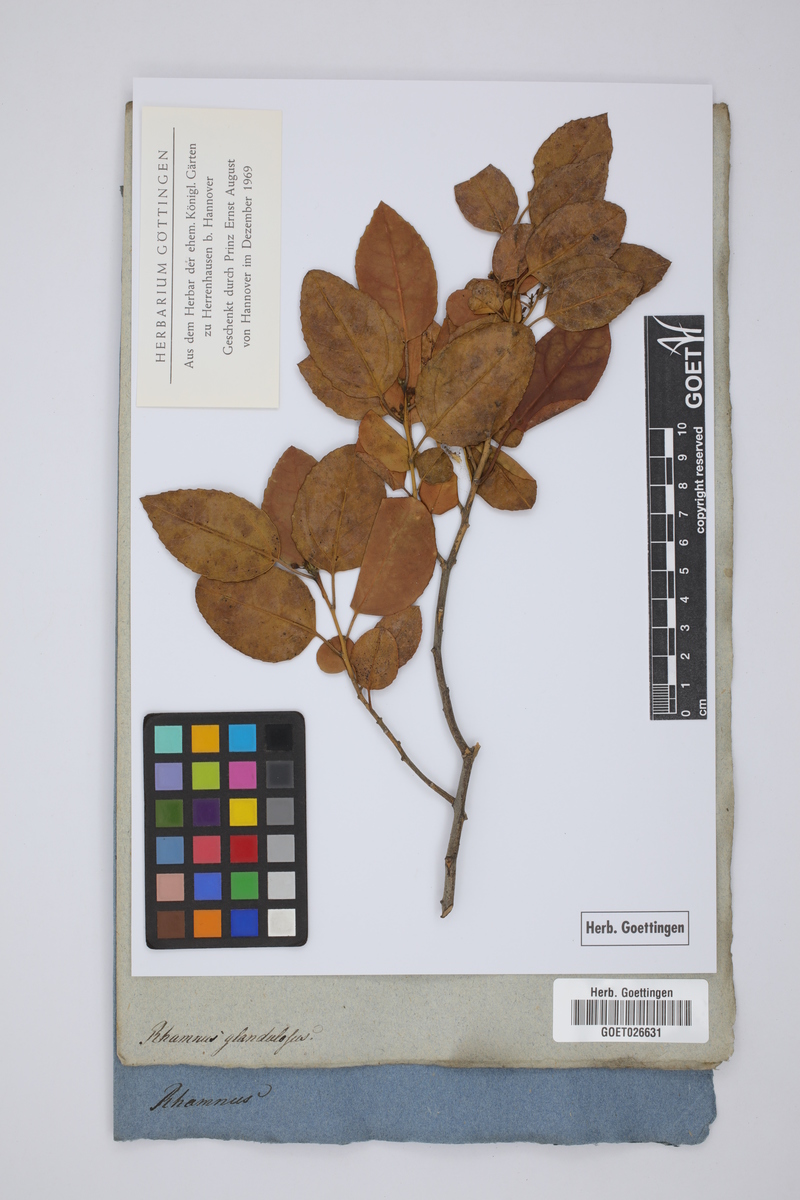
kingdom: Plantae
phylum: Tracheophyta
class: Magnoliopsida
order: Rosales
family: Rhamnaceae
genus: Rhamnus
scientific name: Rhamnus glandulosa
